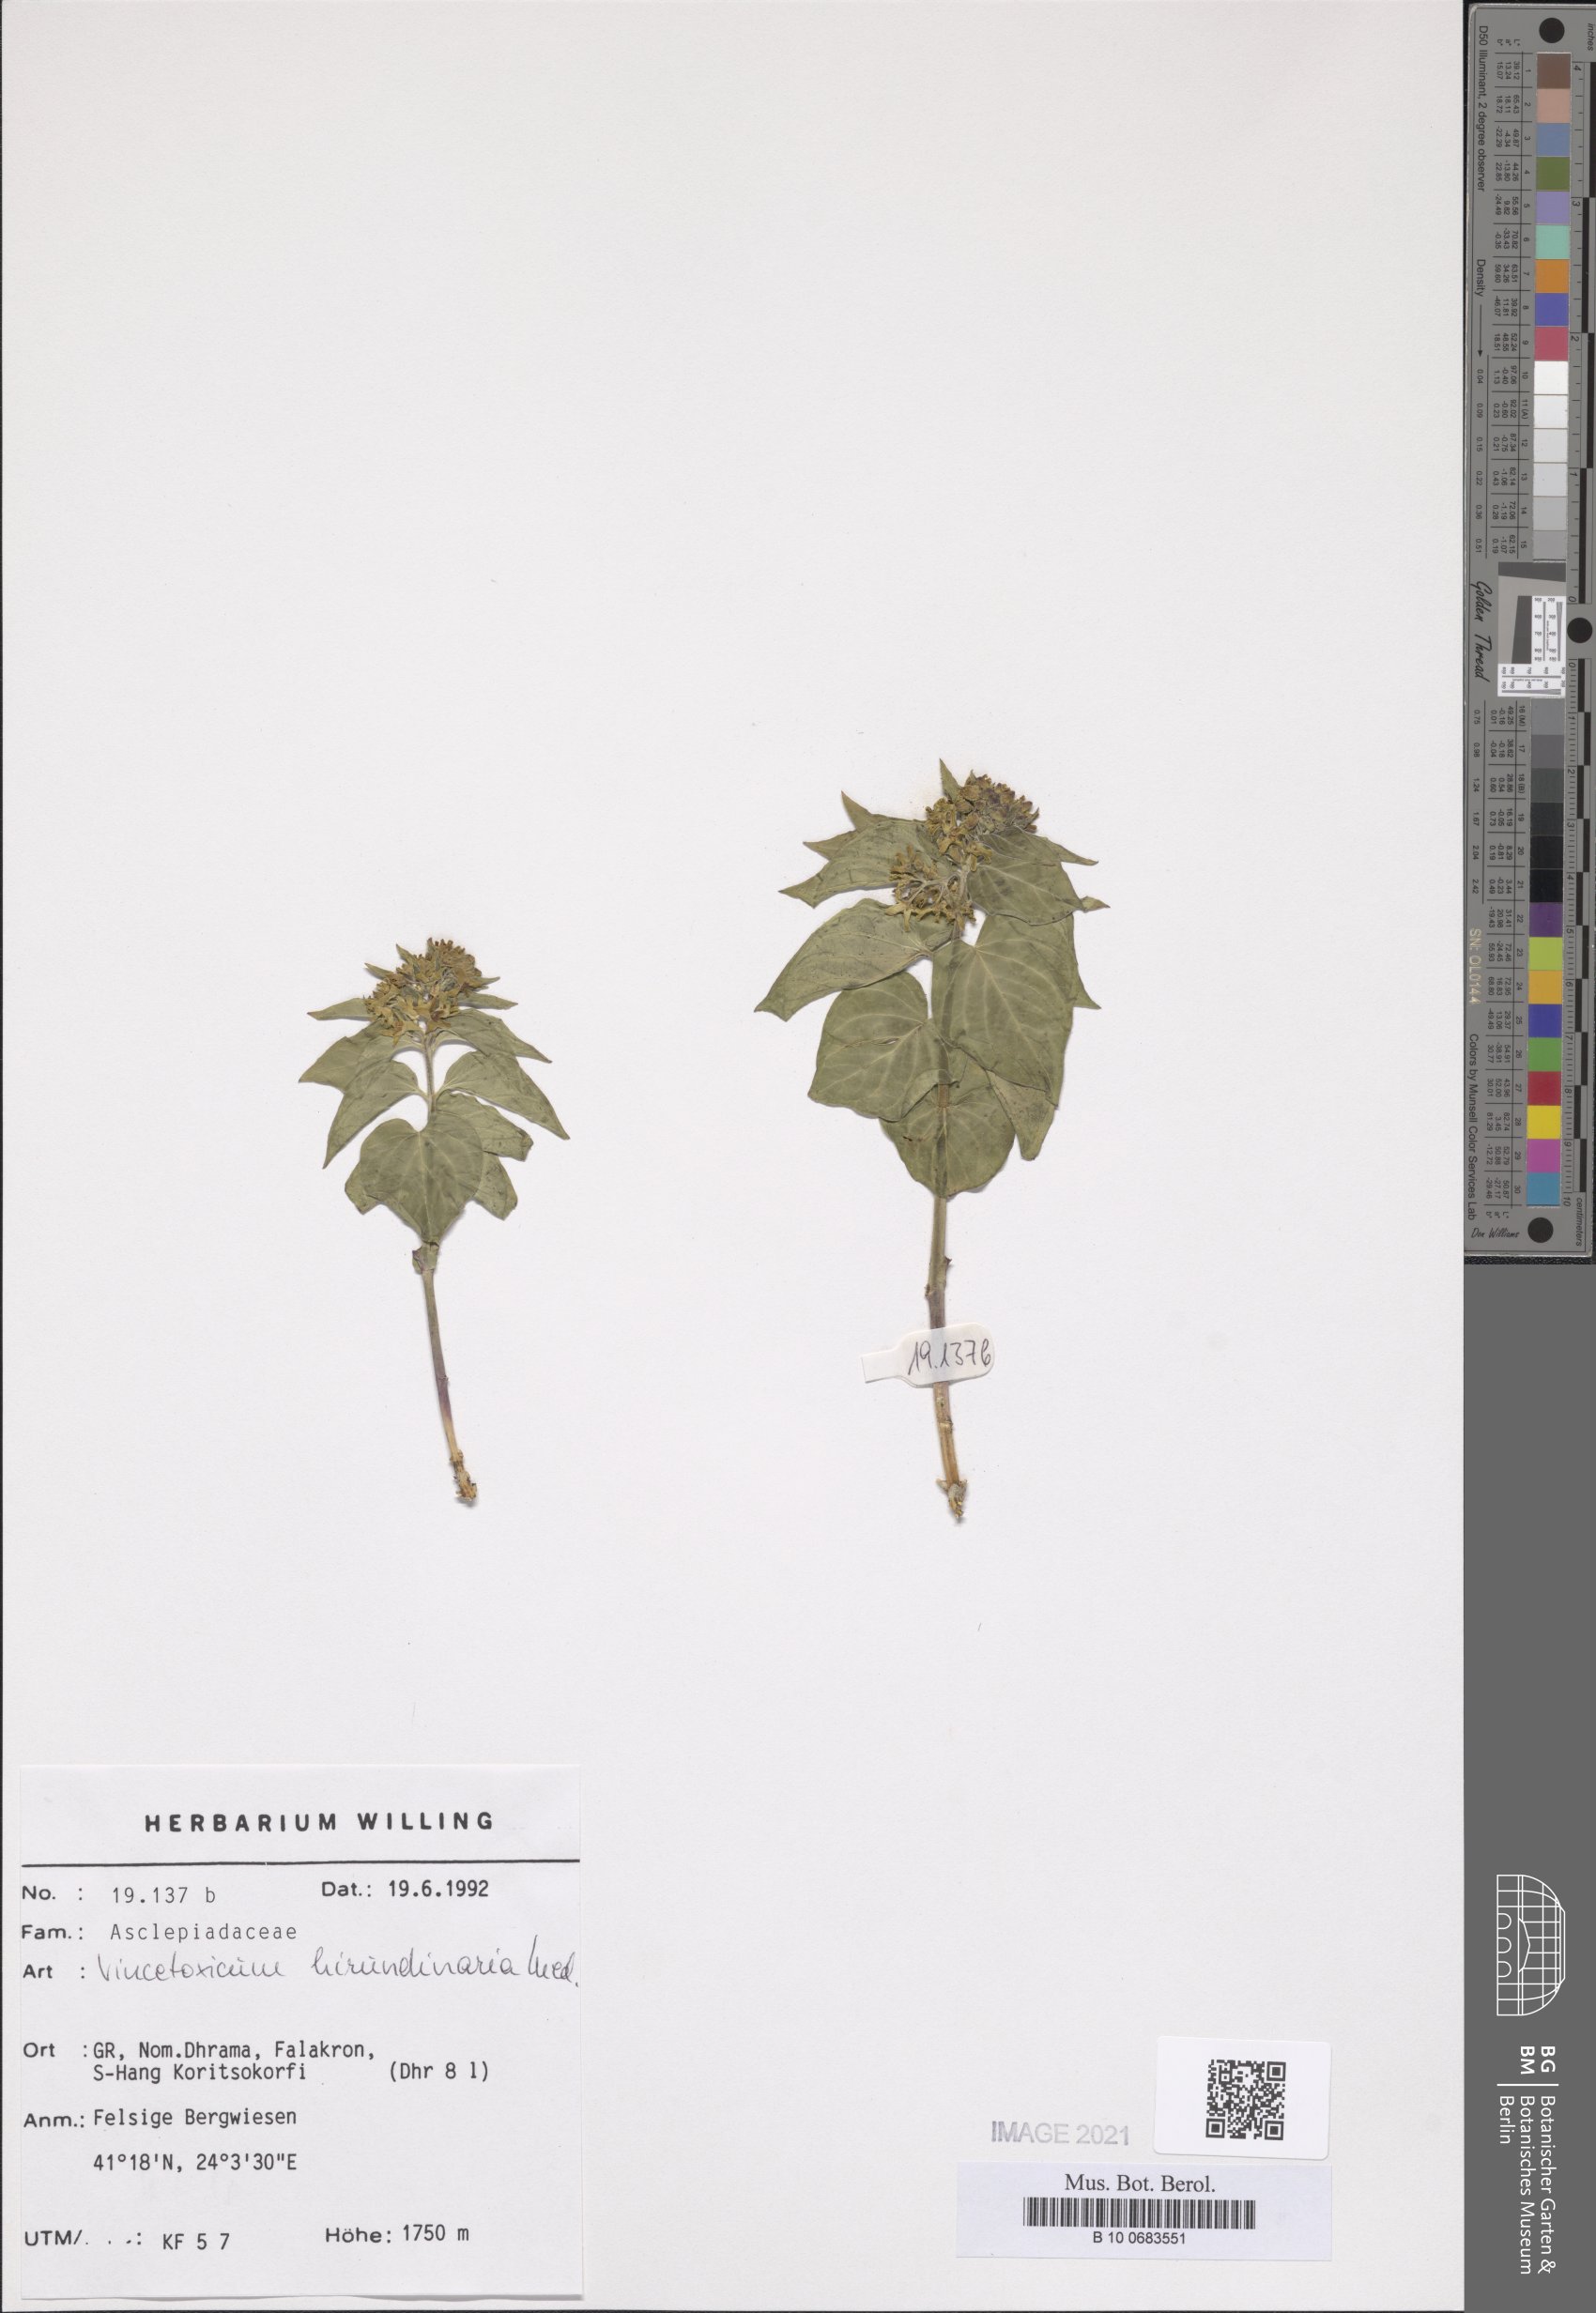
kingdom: Plantae
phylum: Tracheophyta
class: Magnoliopsida
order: Gentianales
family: Apocynaceae
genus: Vincetoxicum
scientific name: Vincetoxicum hirundinaria
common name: White swallowwort
